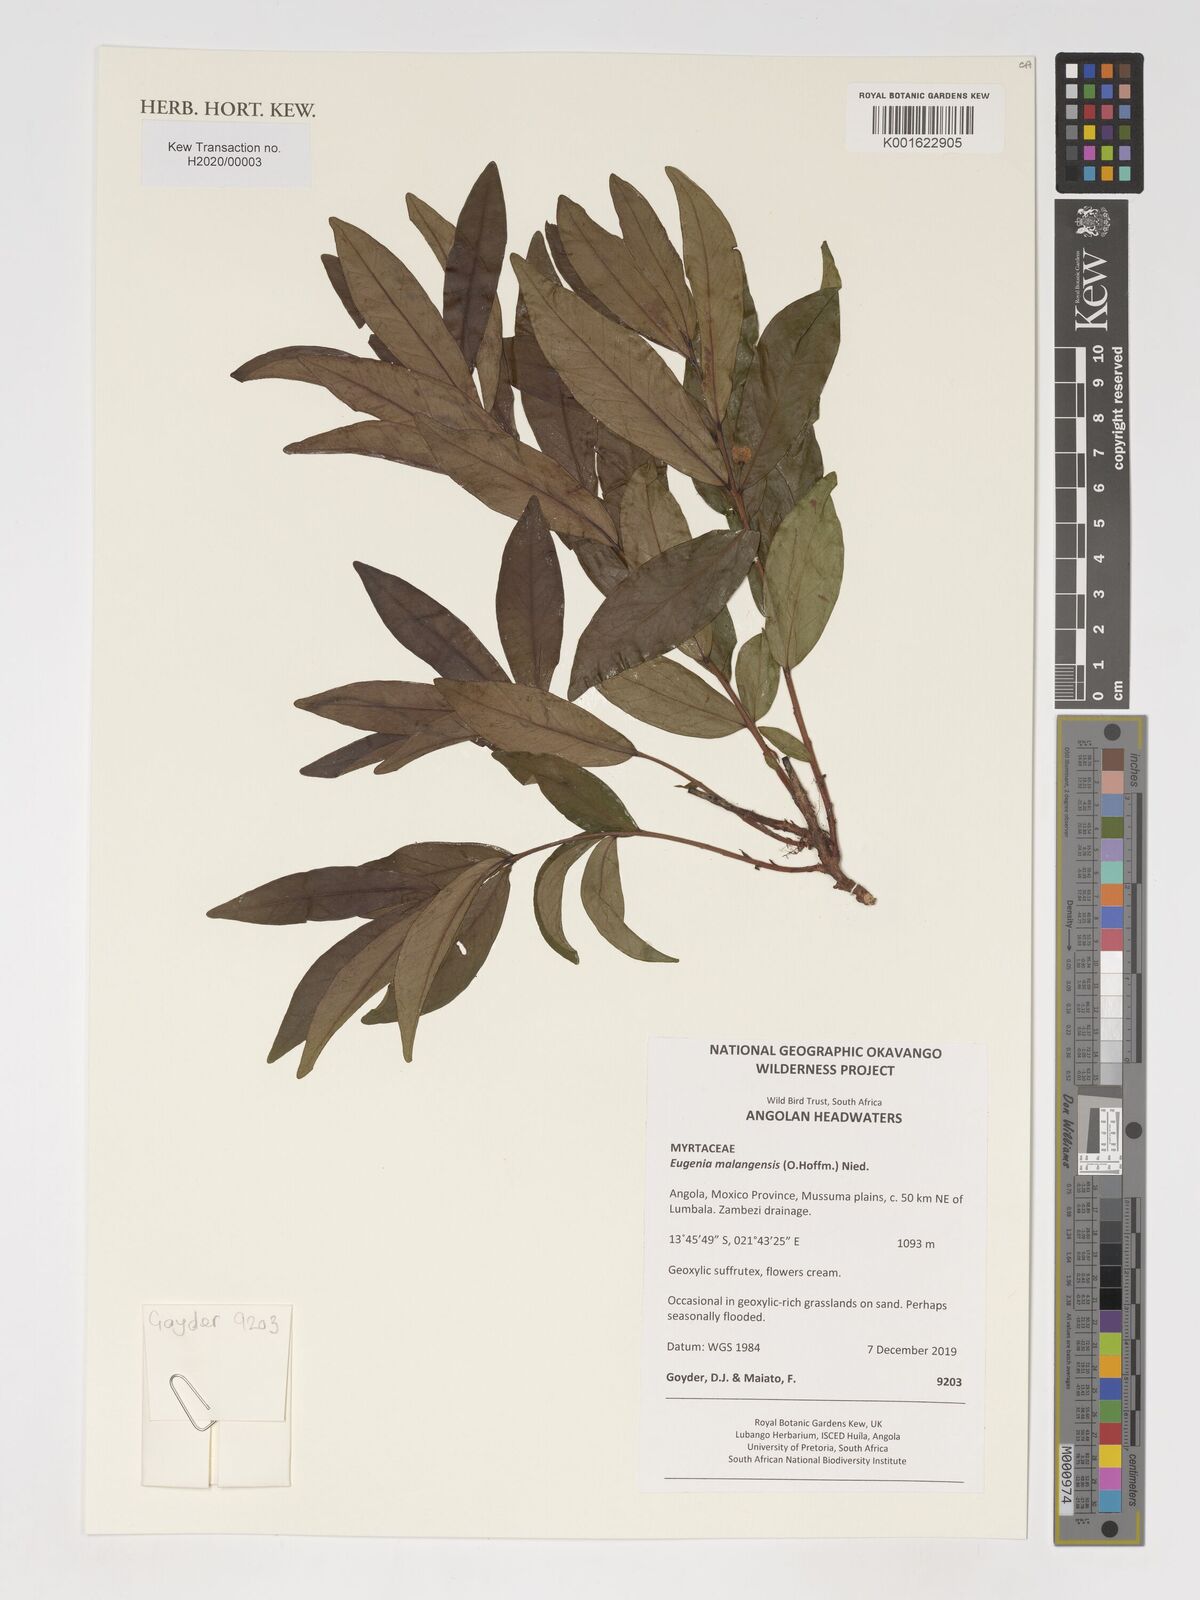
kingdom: Plantae
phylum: Tracheophyta
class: Magnoliopsida
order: Myrtales
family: Myrtaceae
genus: Eugenia
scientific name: Eugenia malangensis
